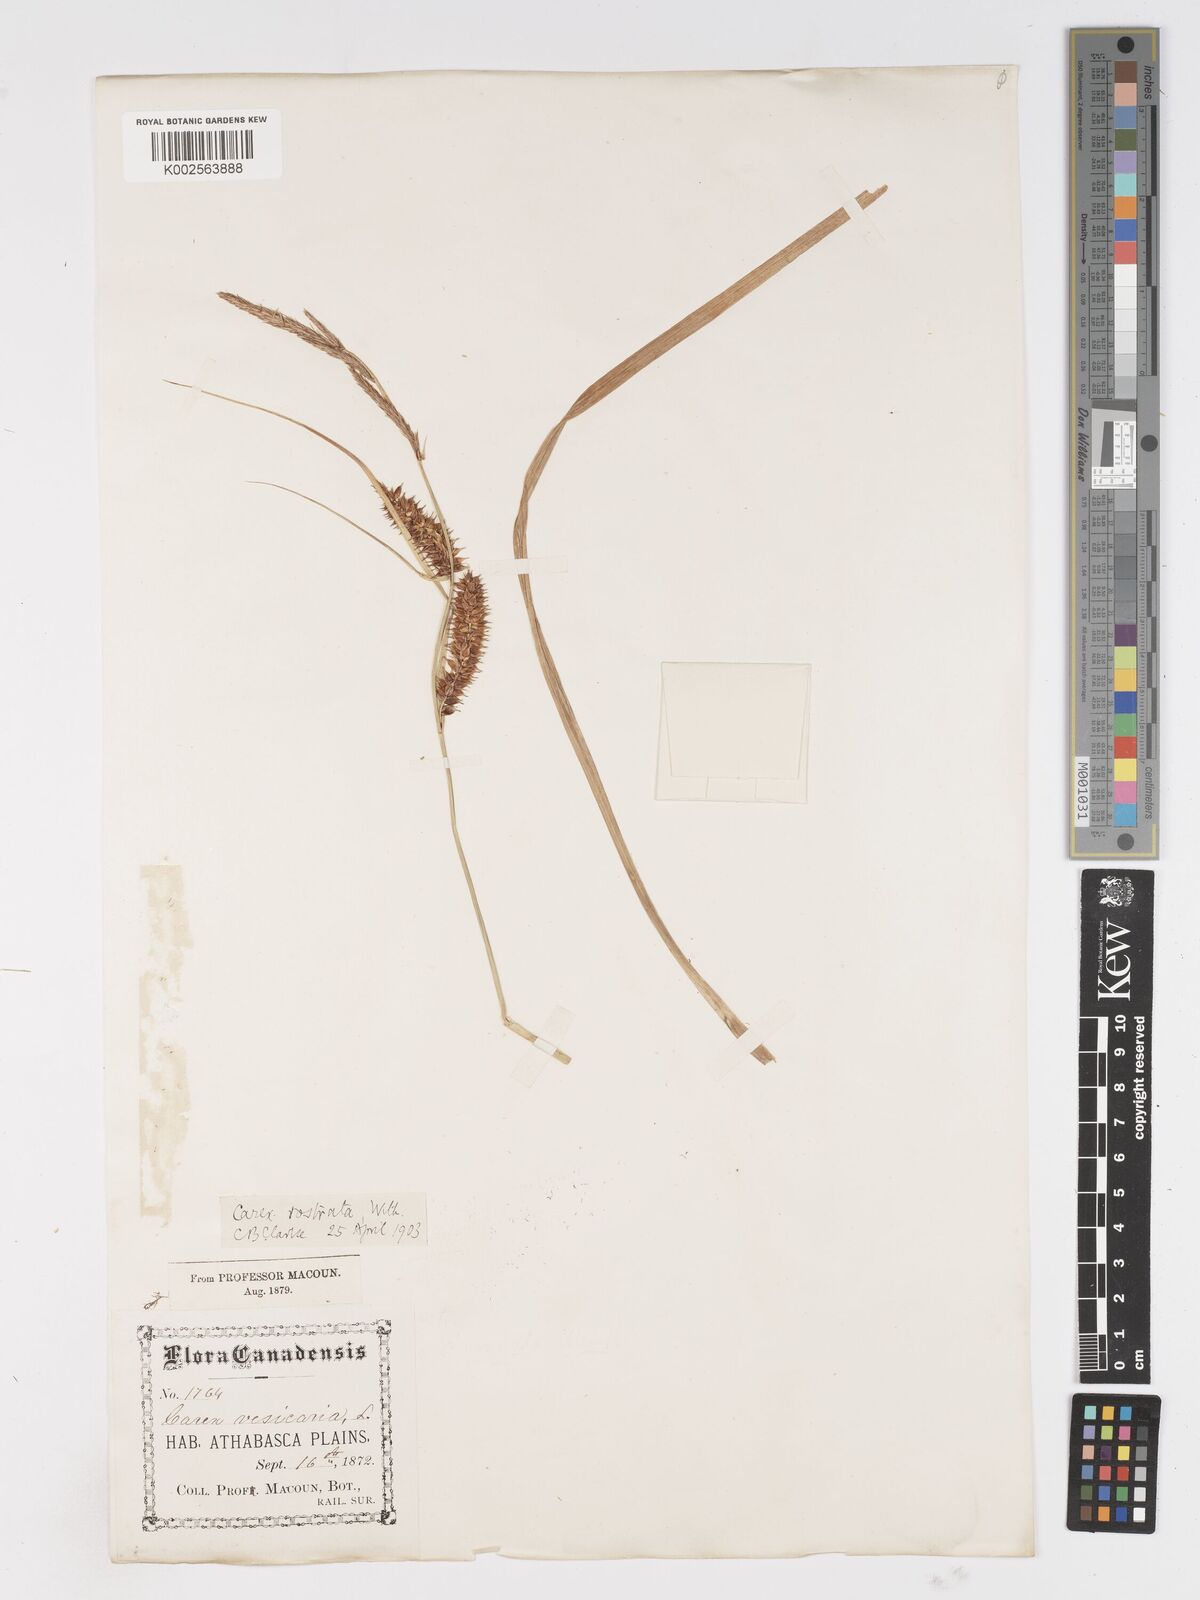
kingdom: Plantae
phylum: Tracheophyta
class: Liliopsida
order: Poales
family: Cyperaceae
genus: Carex
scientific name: Carex rostrata
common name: Bottle sedge
